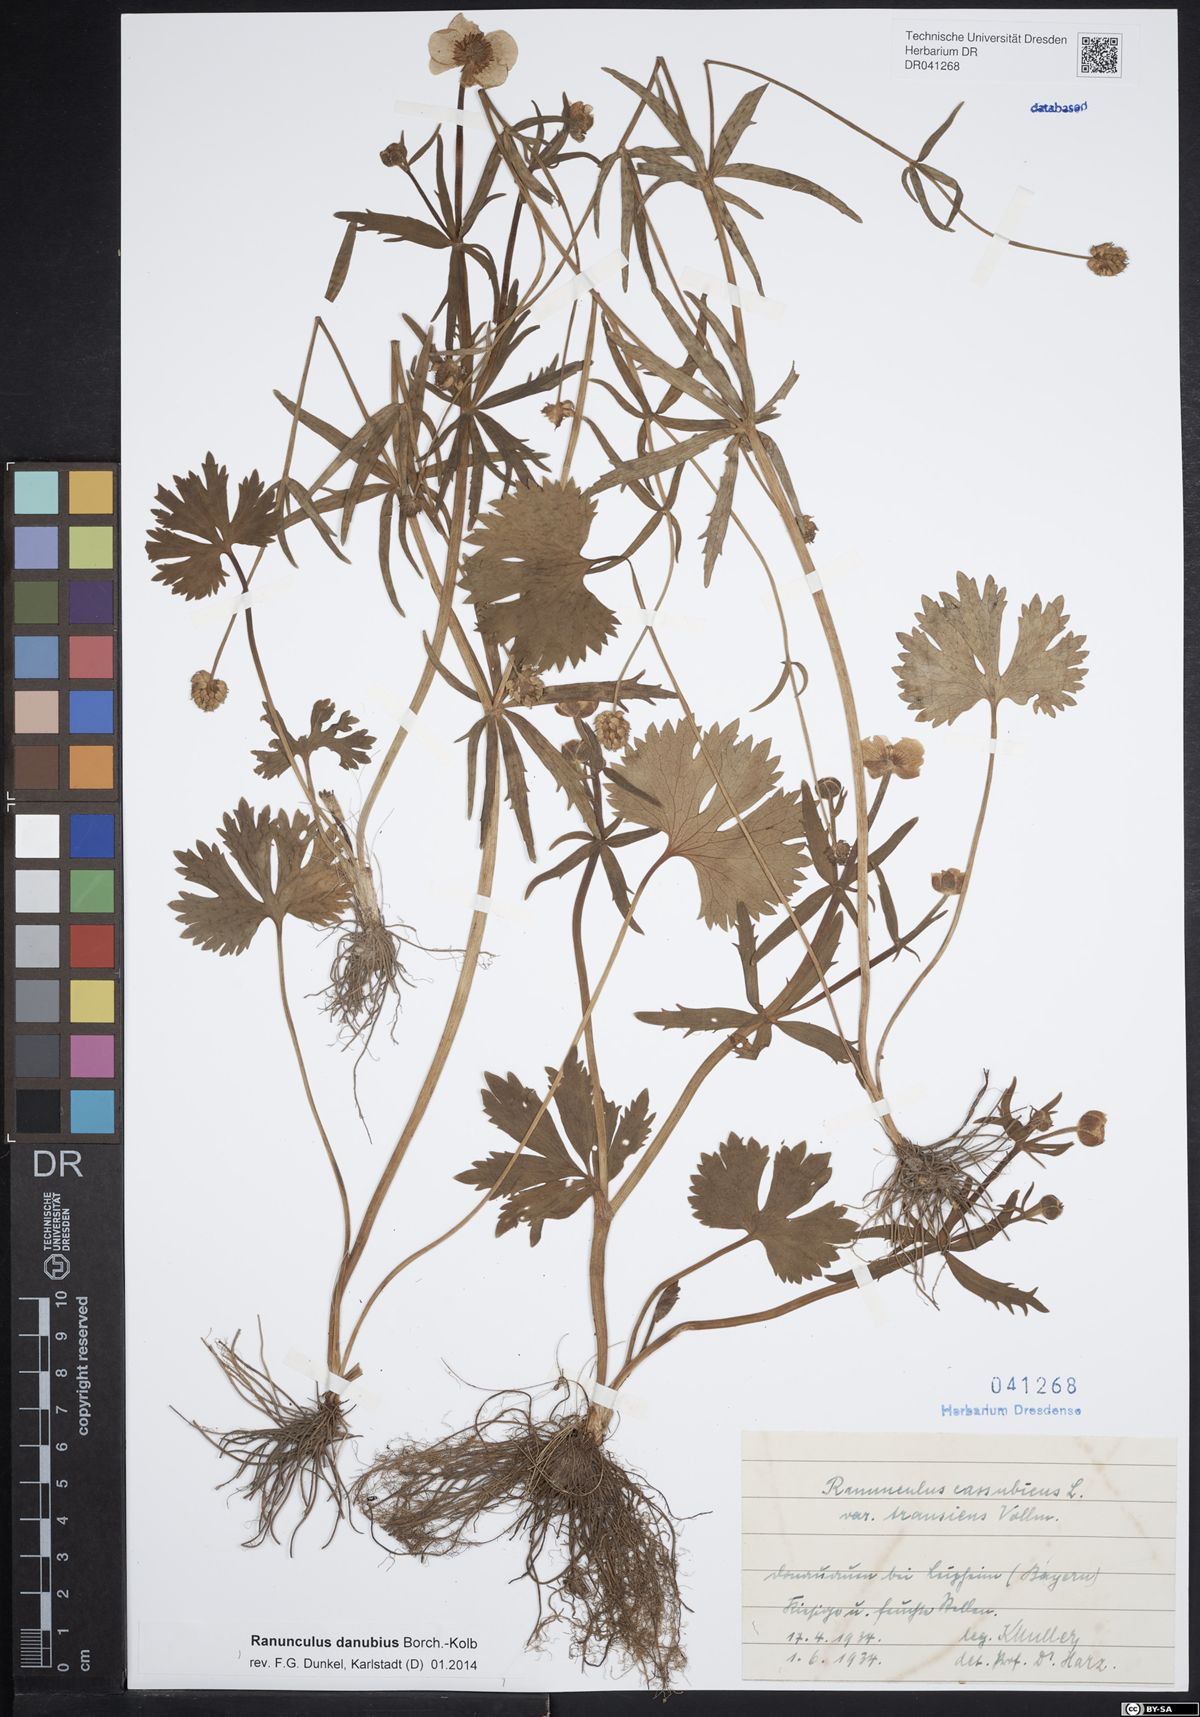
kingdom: Plantae
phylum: Tracheophyta
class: Magnoliopsida
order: Ranunculales
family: Ranunculaceae
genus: Ranunculus
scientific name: Ranunculus danubius
